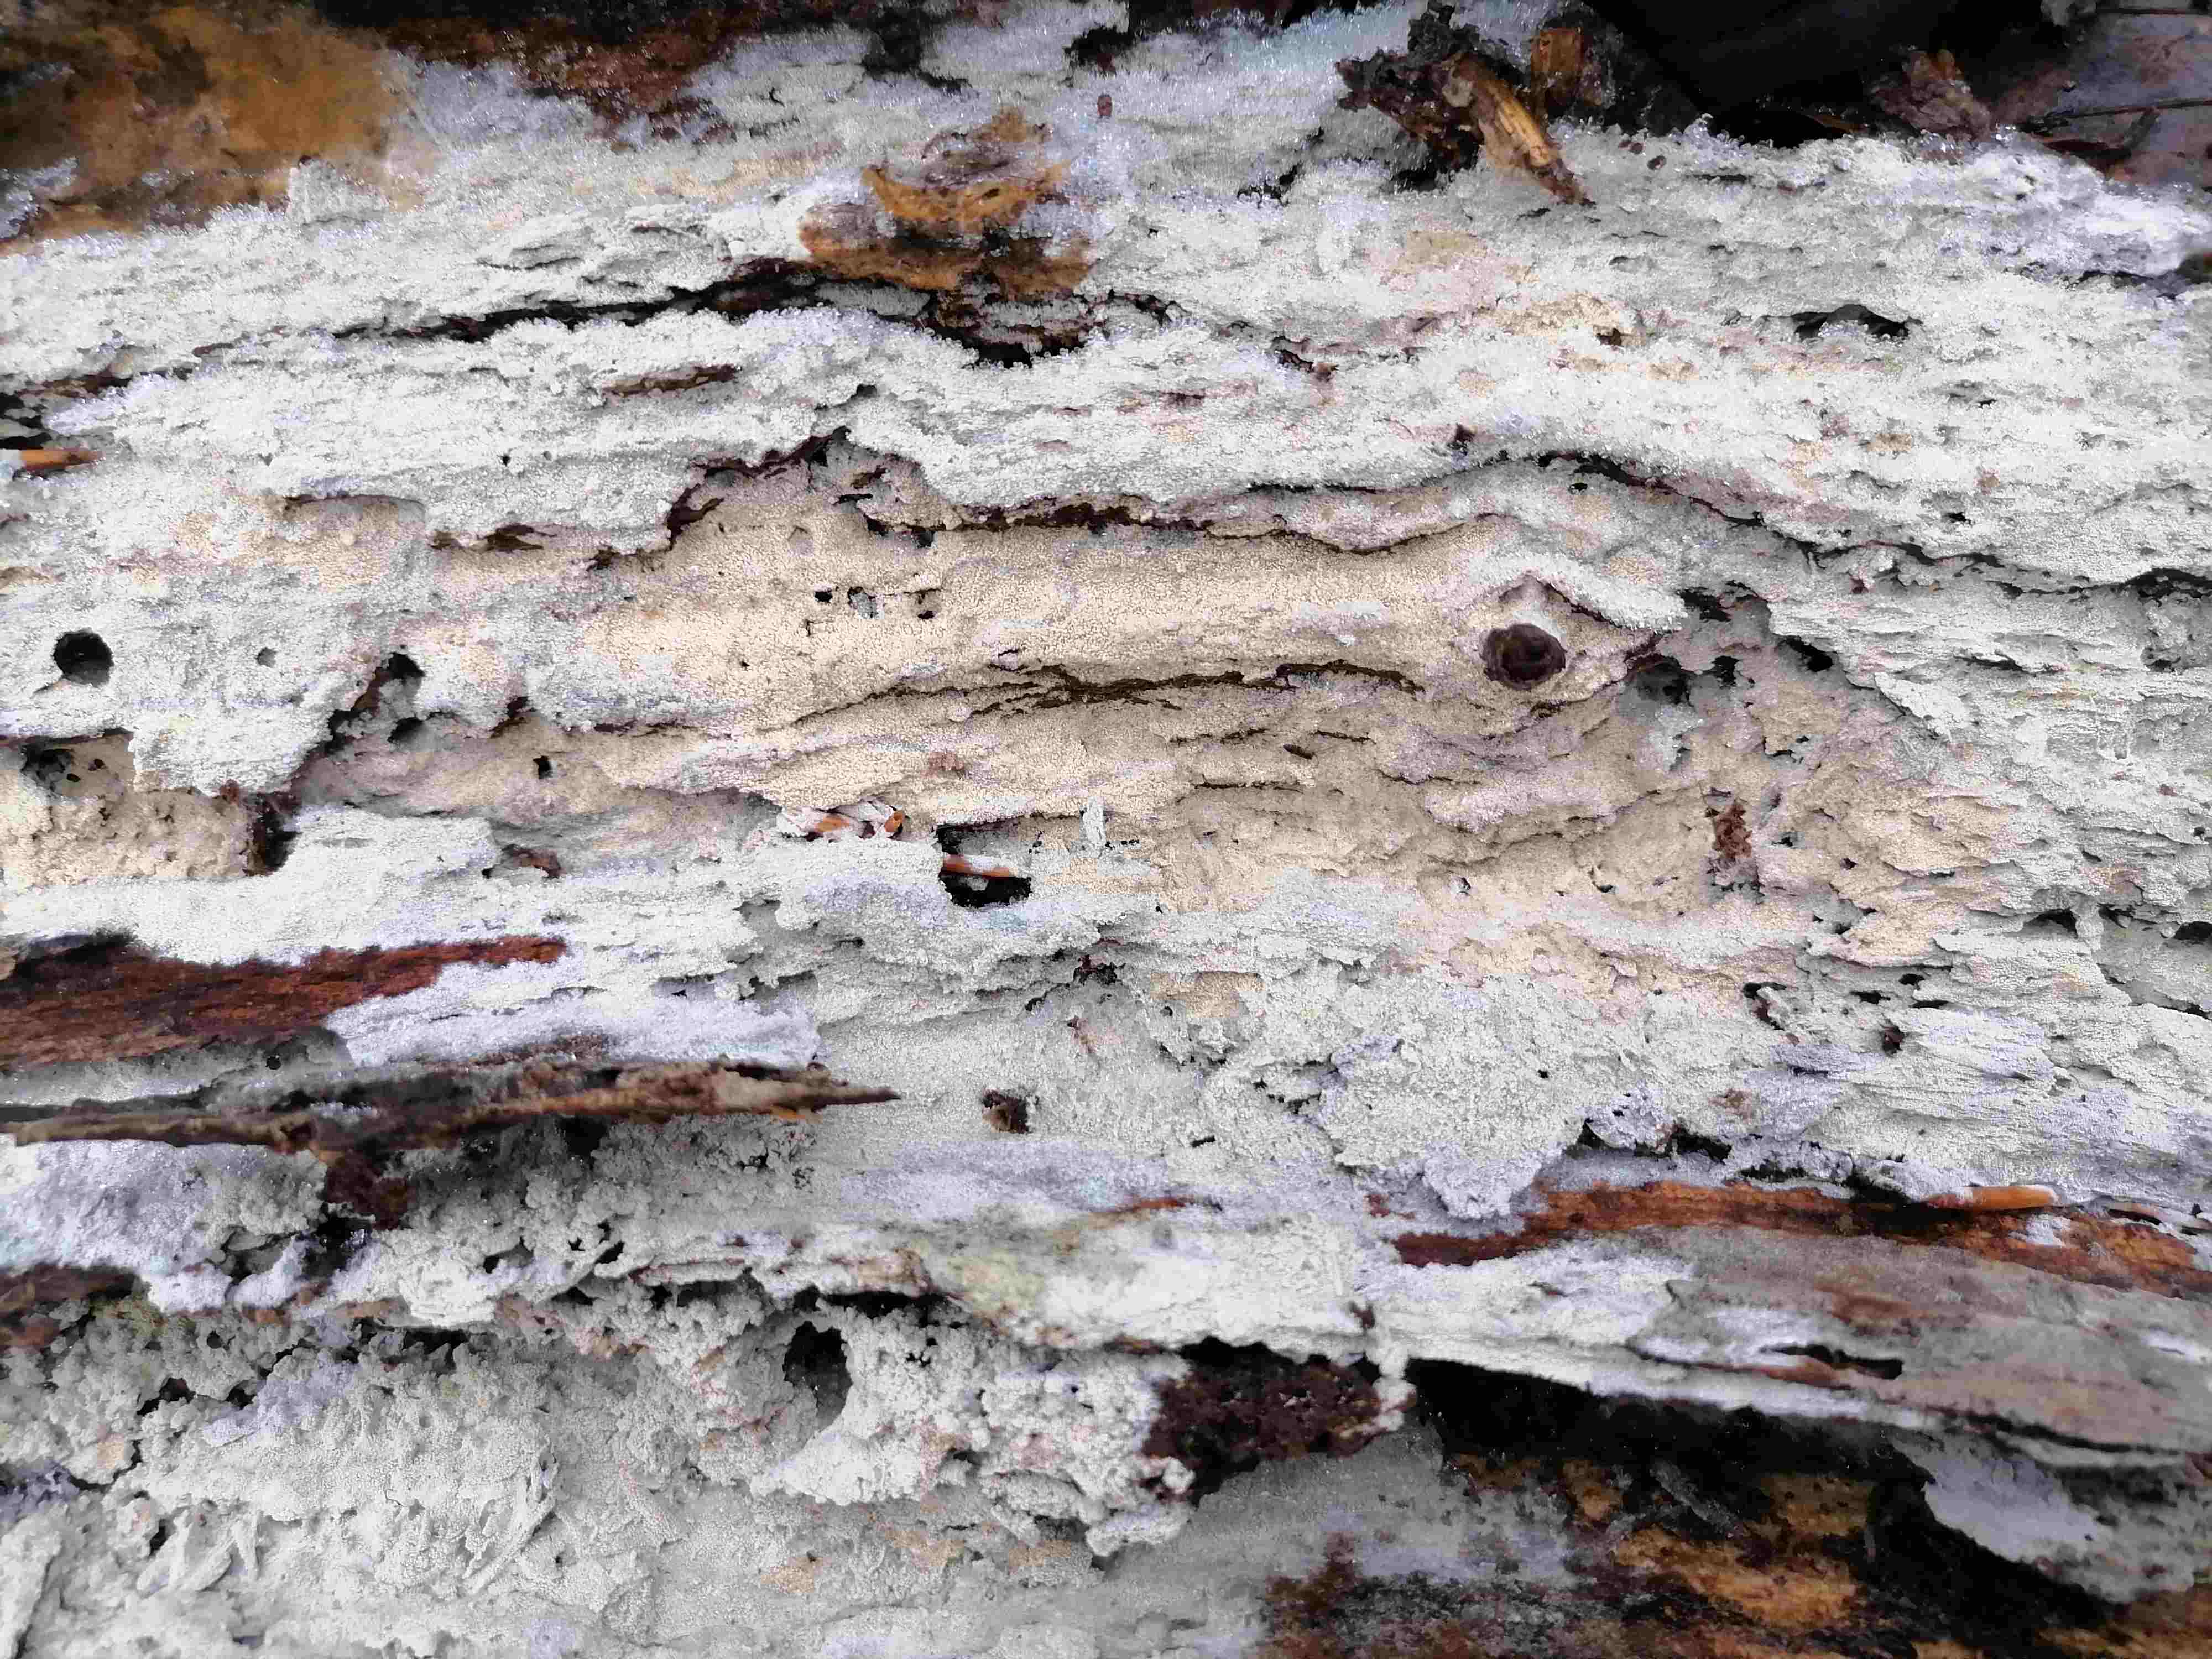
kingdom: Fungi
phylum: Basidiomycota
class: Agaricomycetes
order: Corticiales
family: Corticiaceae
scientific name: Corticiaceae
